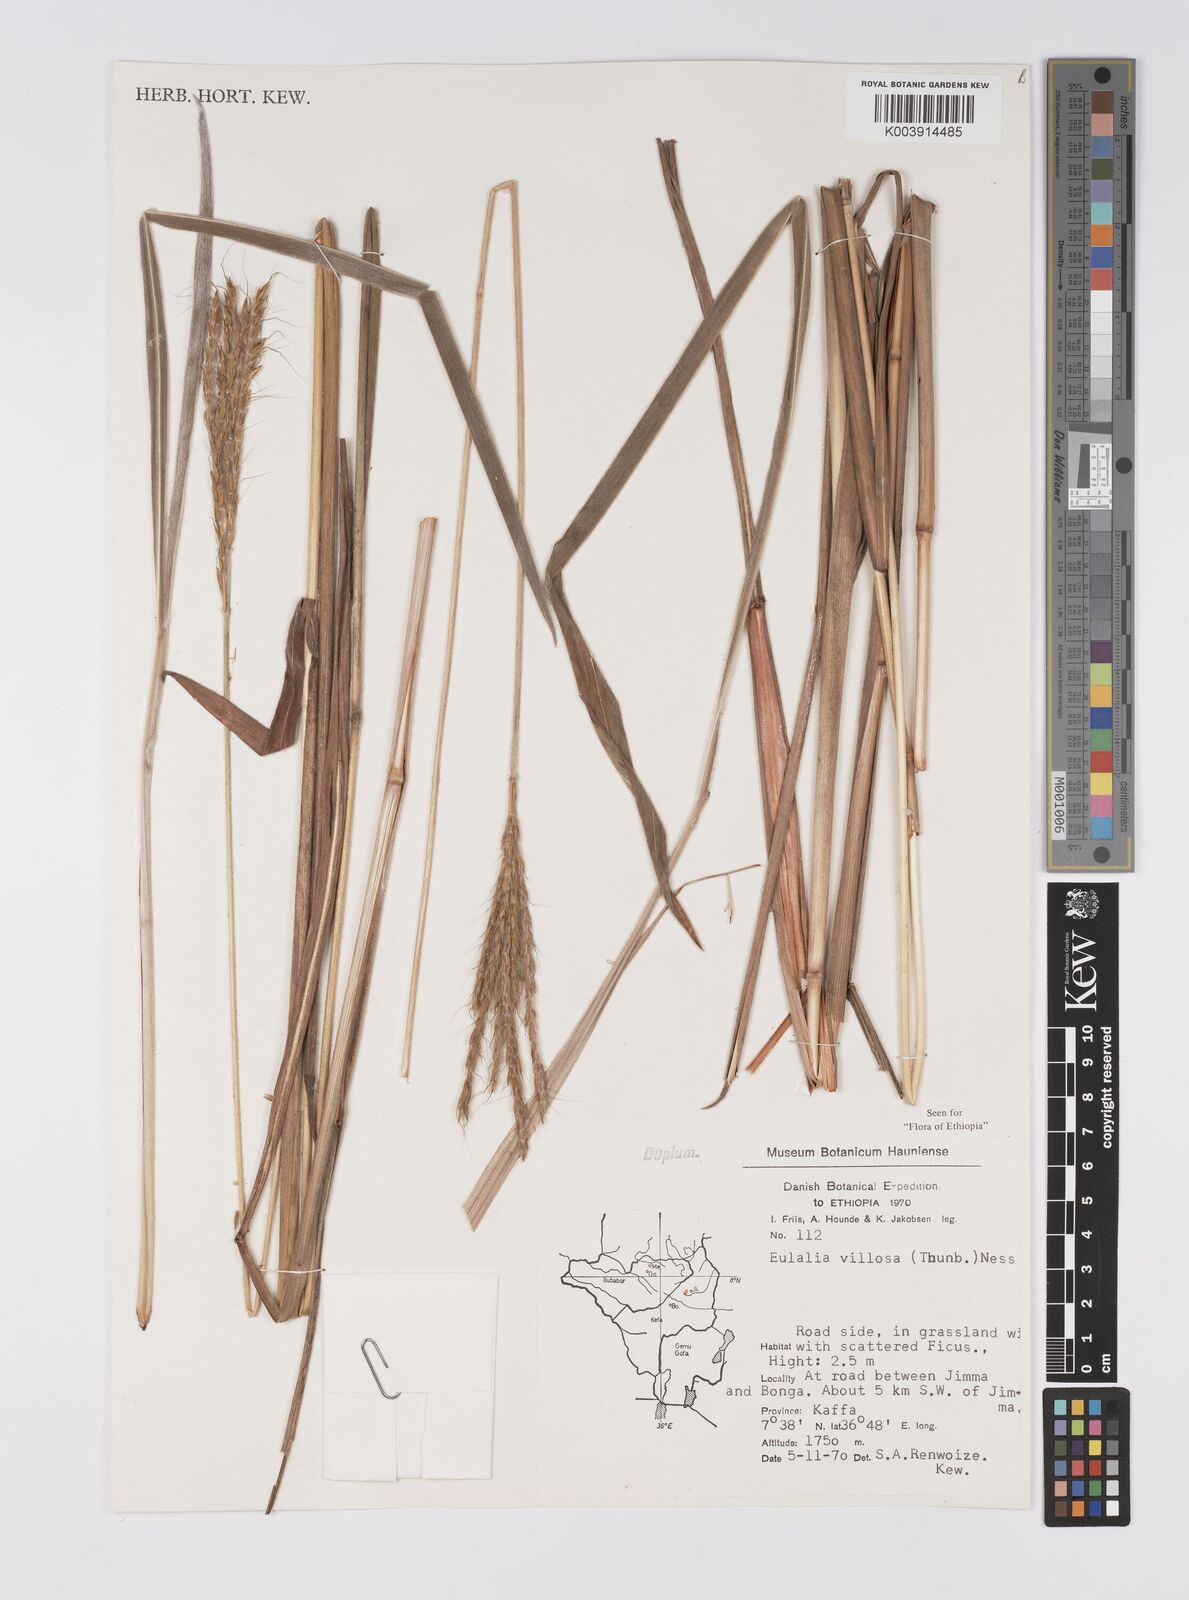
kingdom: Plantae
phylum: Tracheophyta
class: Liliopsida
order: Poales
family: Poaceae
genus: Eulalia
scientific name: Eulalia villosa
